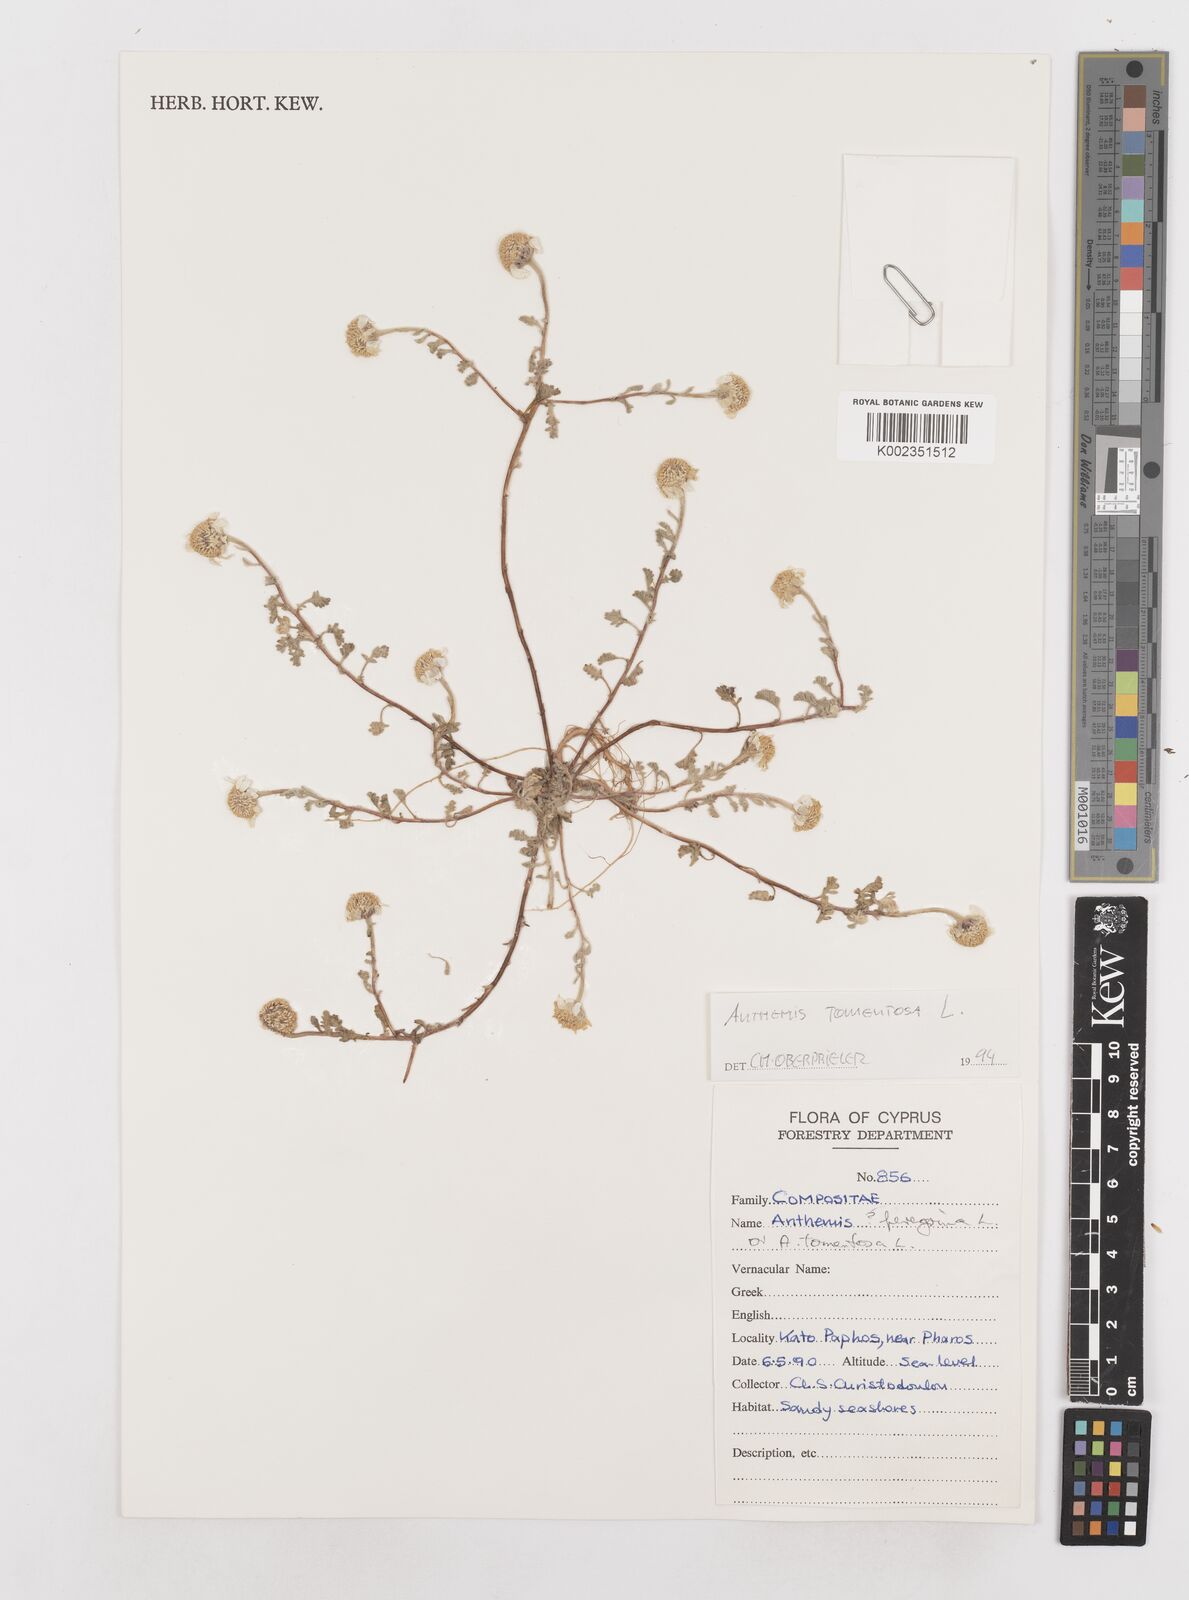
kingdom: Plantae
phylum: Tracheophyta
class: Magnoliopsida
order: Asterales
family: Asteraceae
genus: Anthemis
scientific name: Anthemis tomentosa
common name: Woolly chamomile
